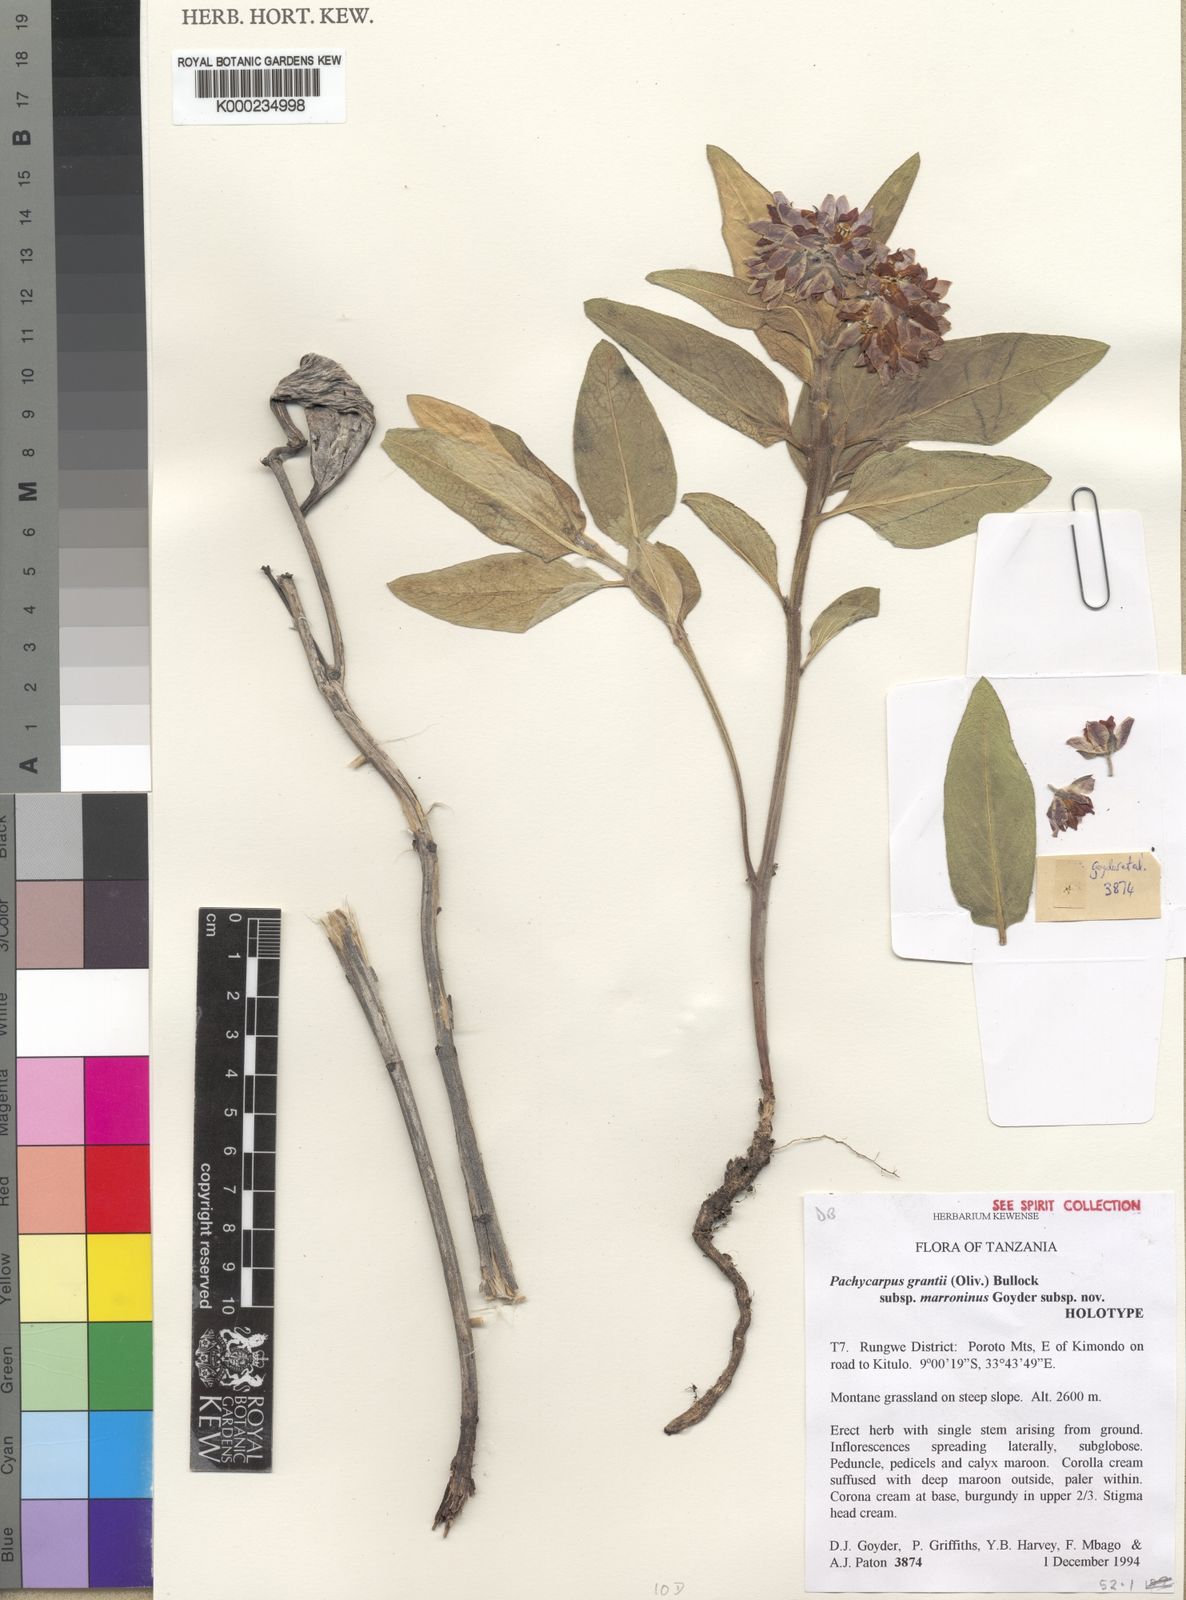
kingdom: Plantae
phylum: Tracheophyta
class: Magnoliopsida
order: Gentianales
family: Apocynaceae
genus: Pachycarpus
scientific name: Pachycarpus grantii
